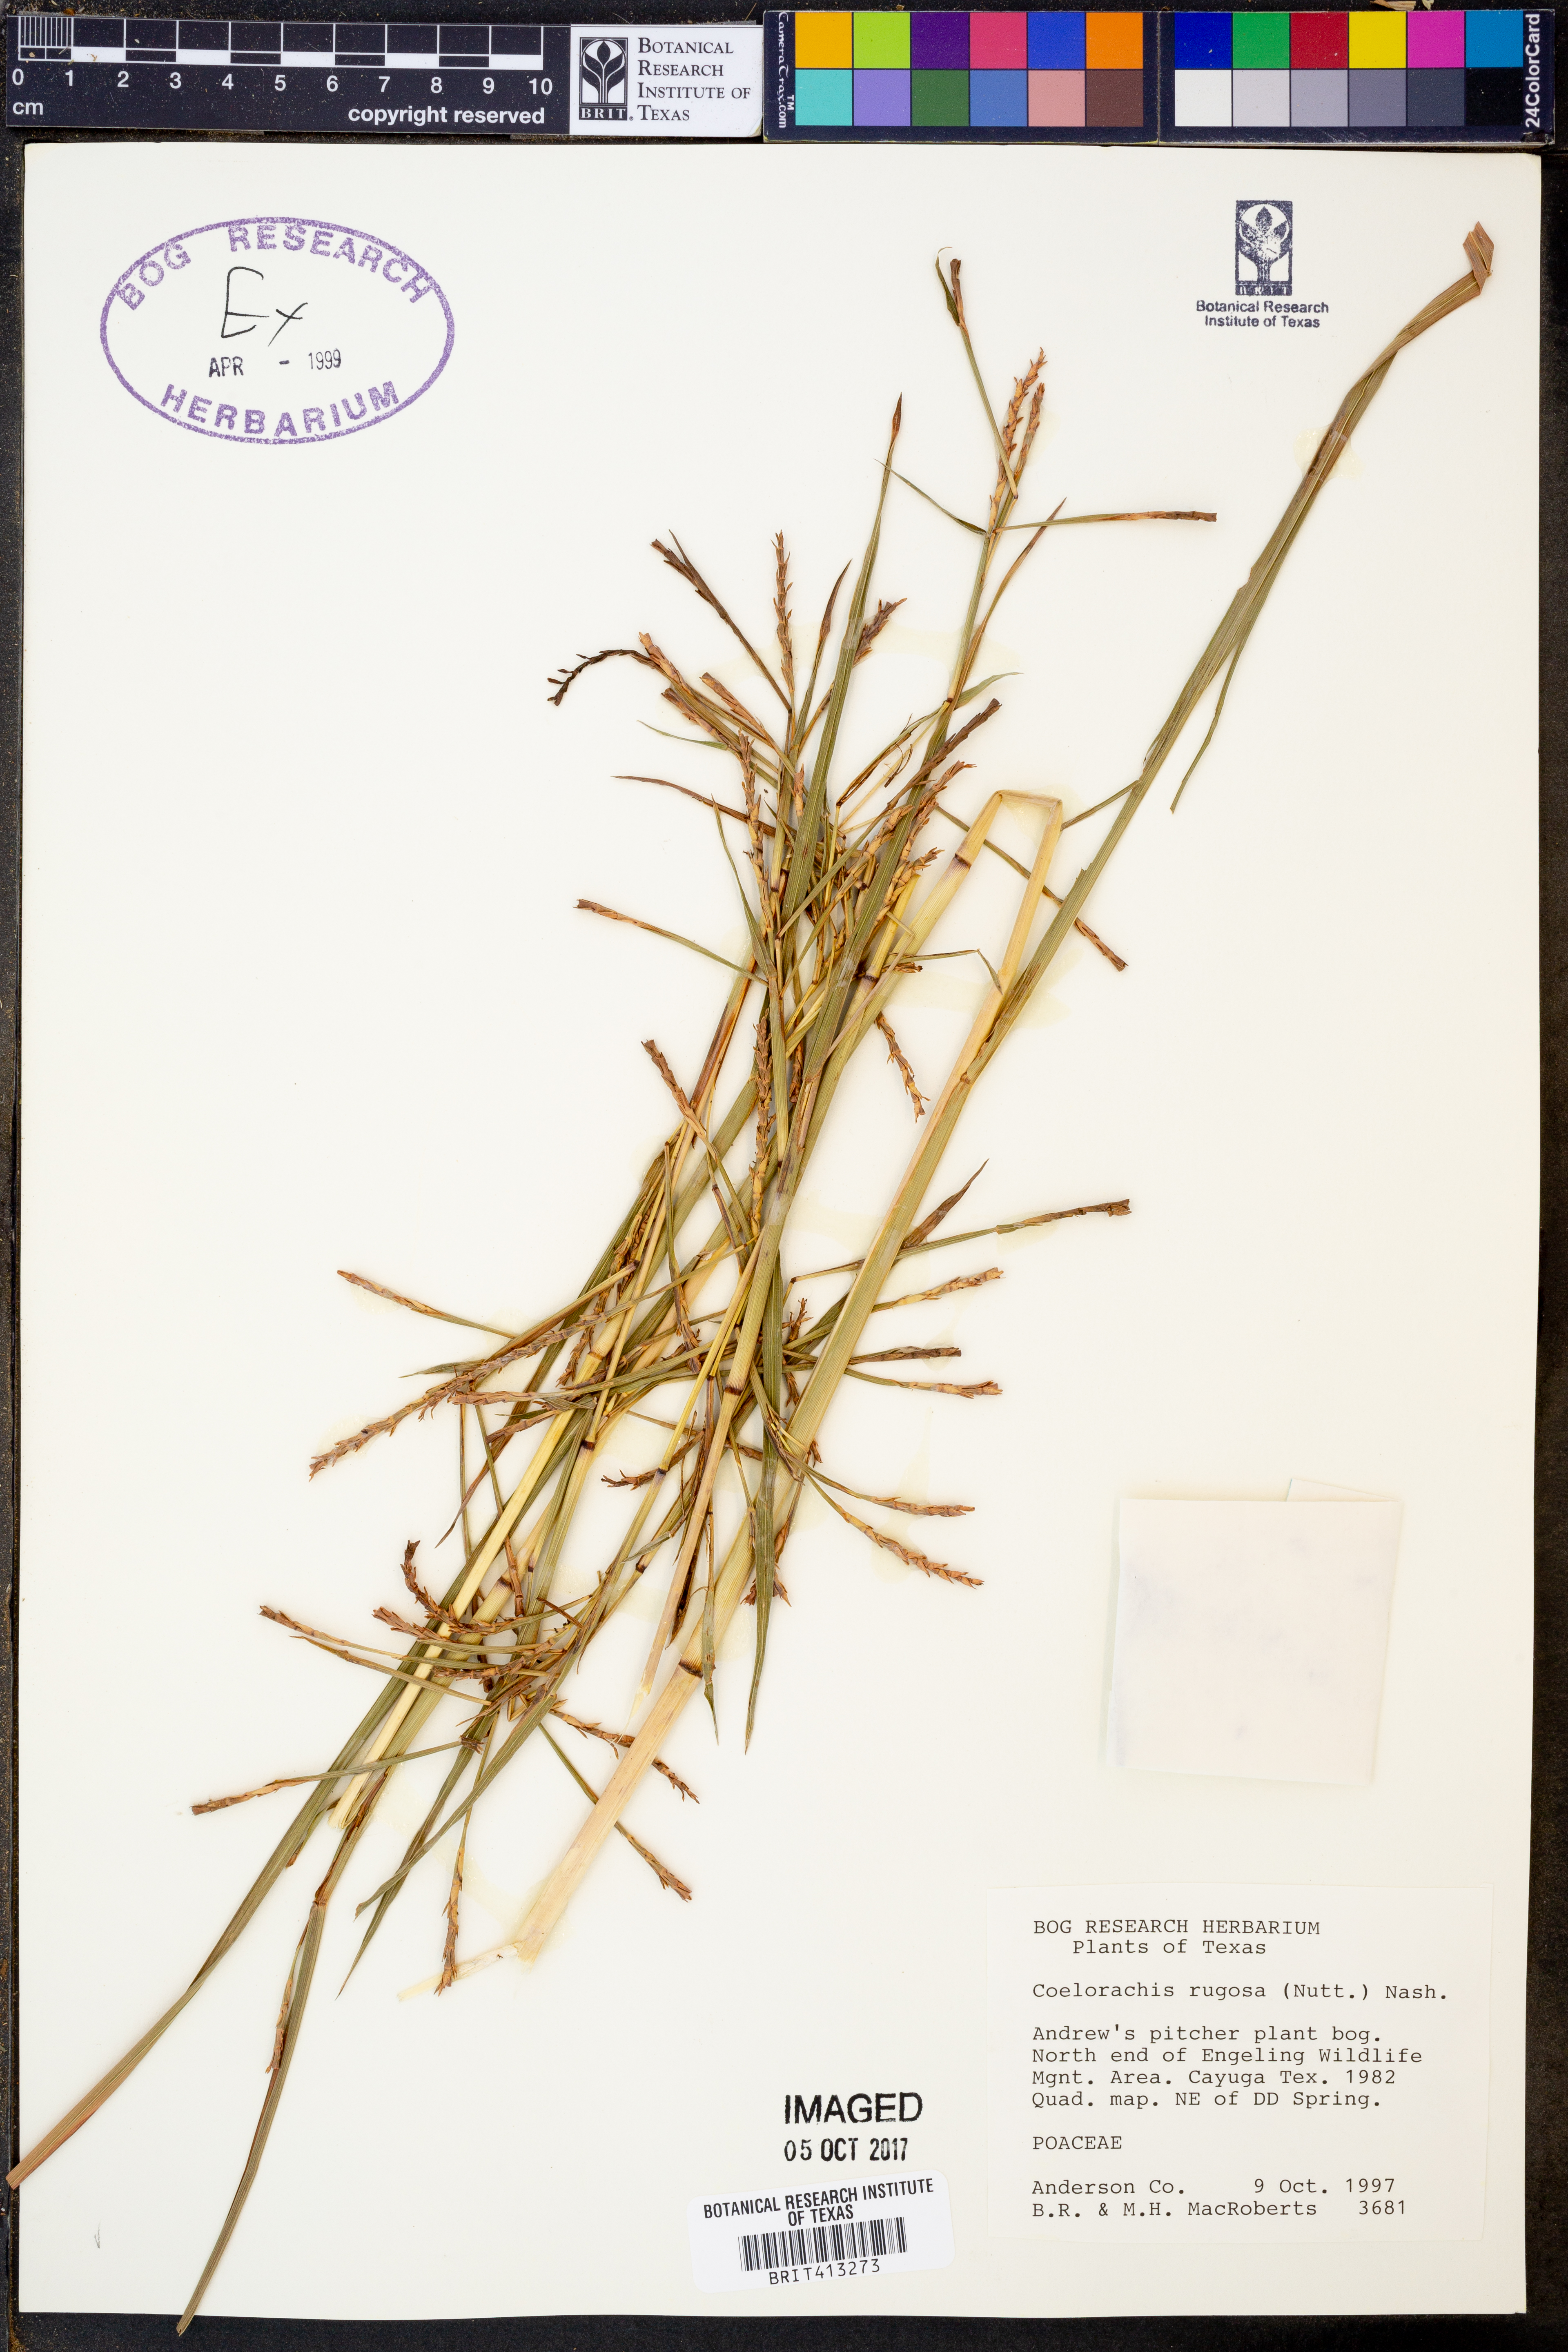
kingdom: Plantae
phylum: Tracheophyta
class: Liliopsida
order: Poales
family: Poaceae
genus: Rottboellia
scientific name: Rottboellia rugosa
